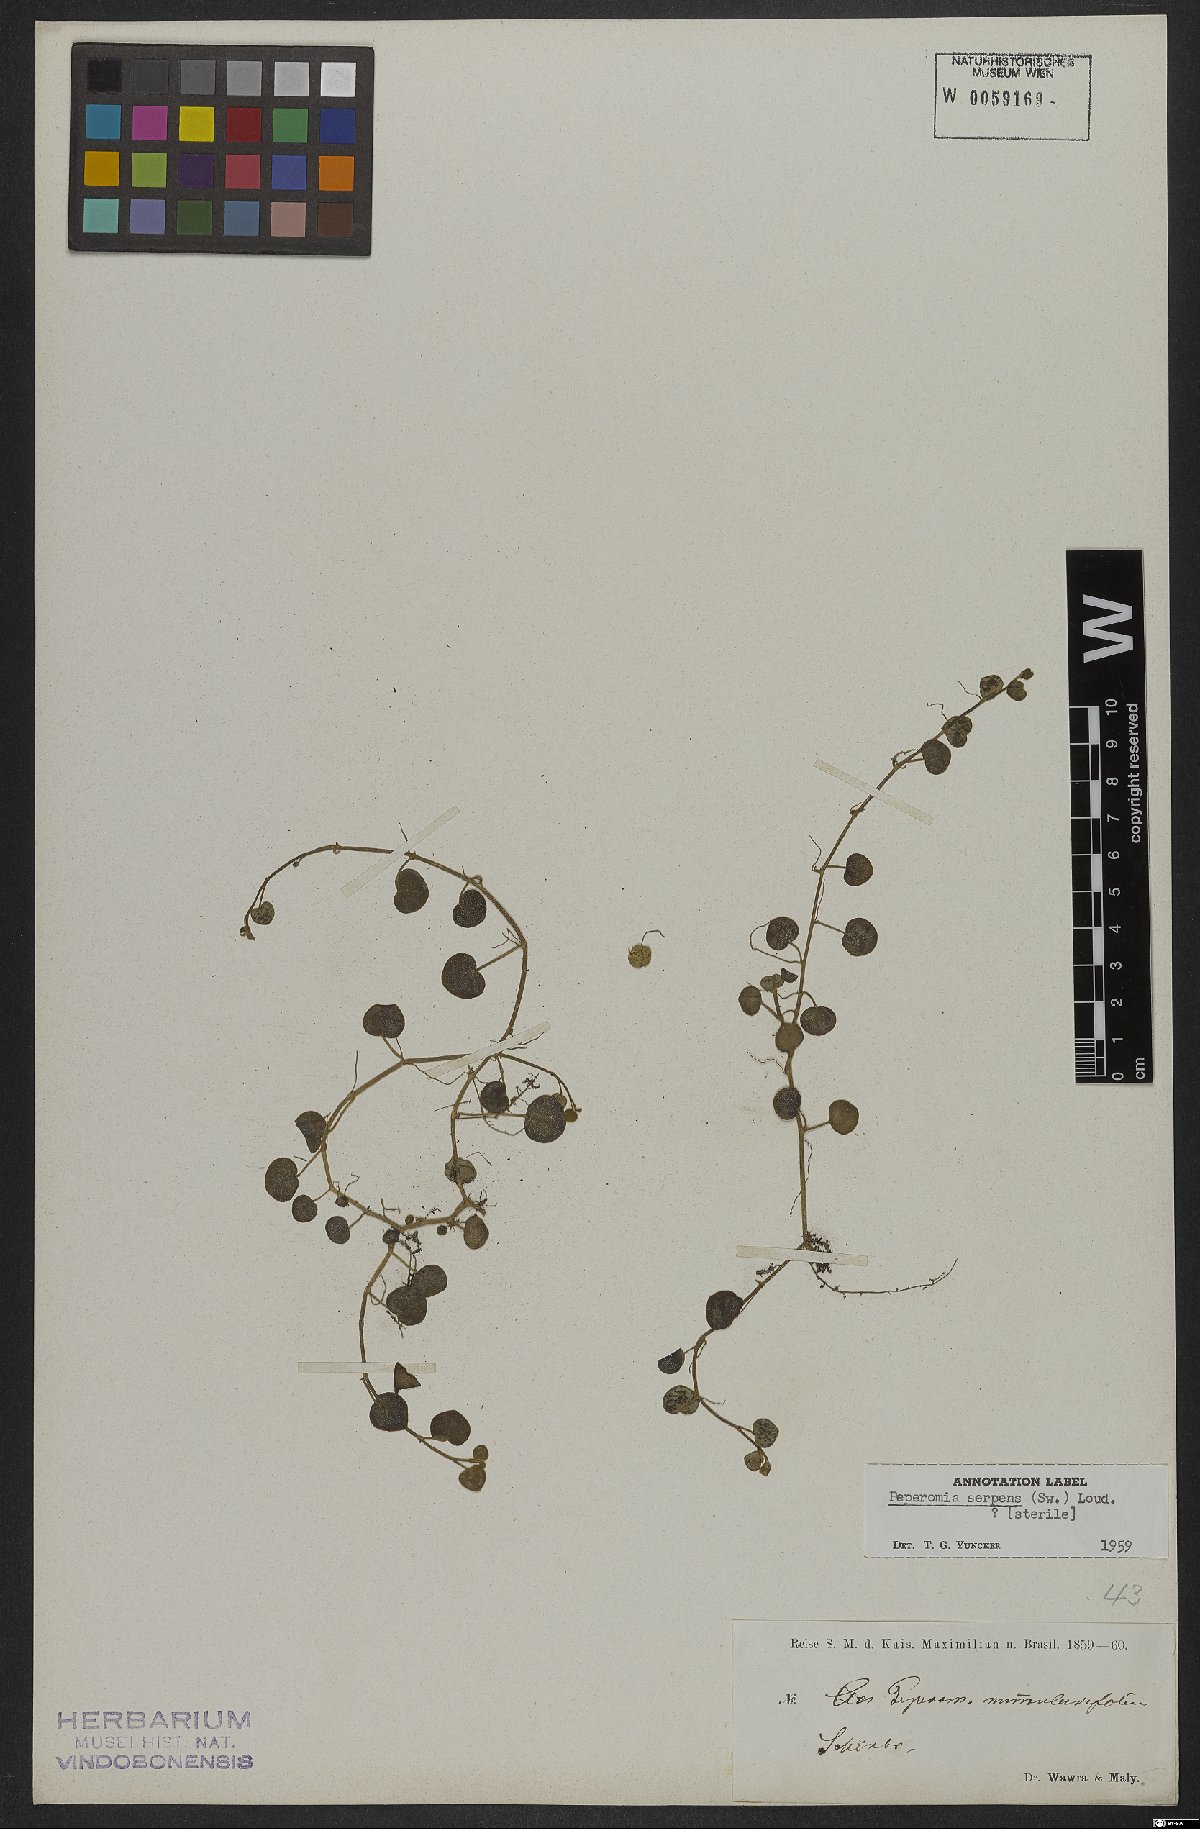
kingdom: Plantae
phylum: Tracheophyta
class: Magnoliopsida
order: Piperales
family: Piperaceae
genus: Peperomia
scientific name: Peperomia serpens
